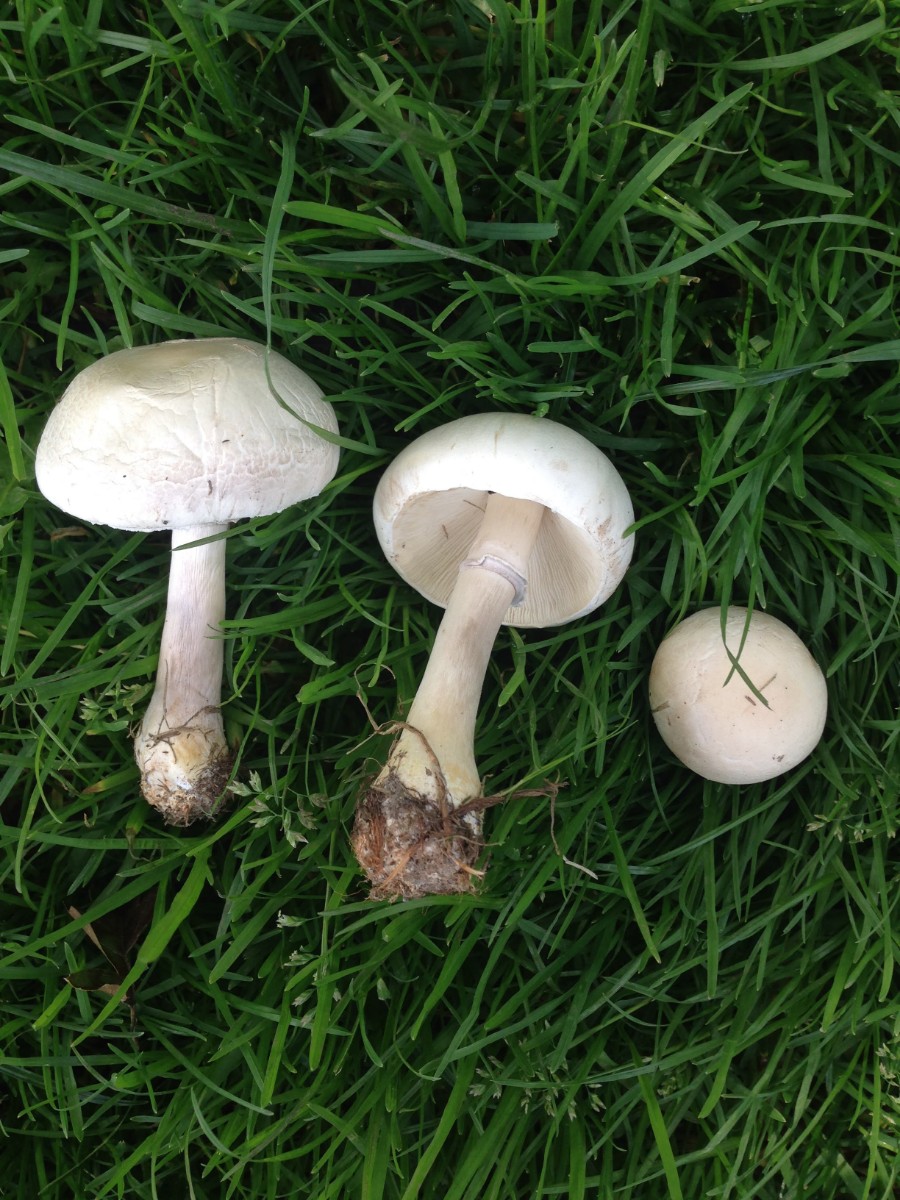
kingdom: Fungi
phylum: Basidiomycota
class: Agaricomycetes
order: Agaricales
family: Agaricaceae
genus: Leucoagaricus
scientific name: Leucoagaricus leucothites
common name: rosabladet silkehat
